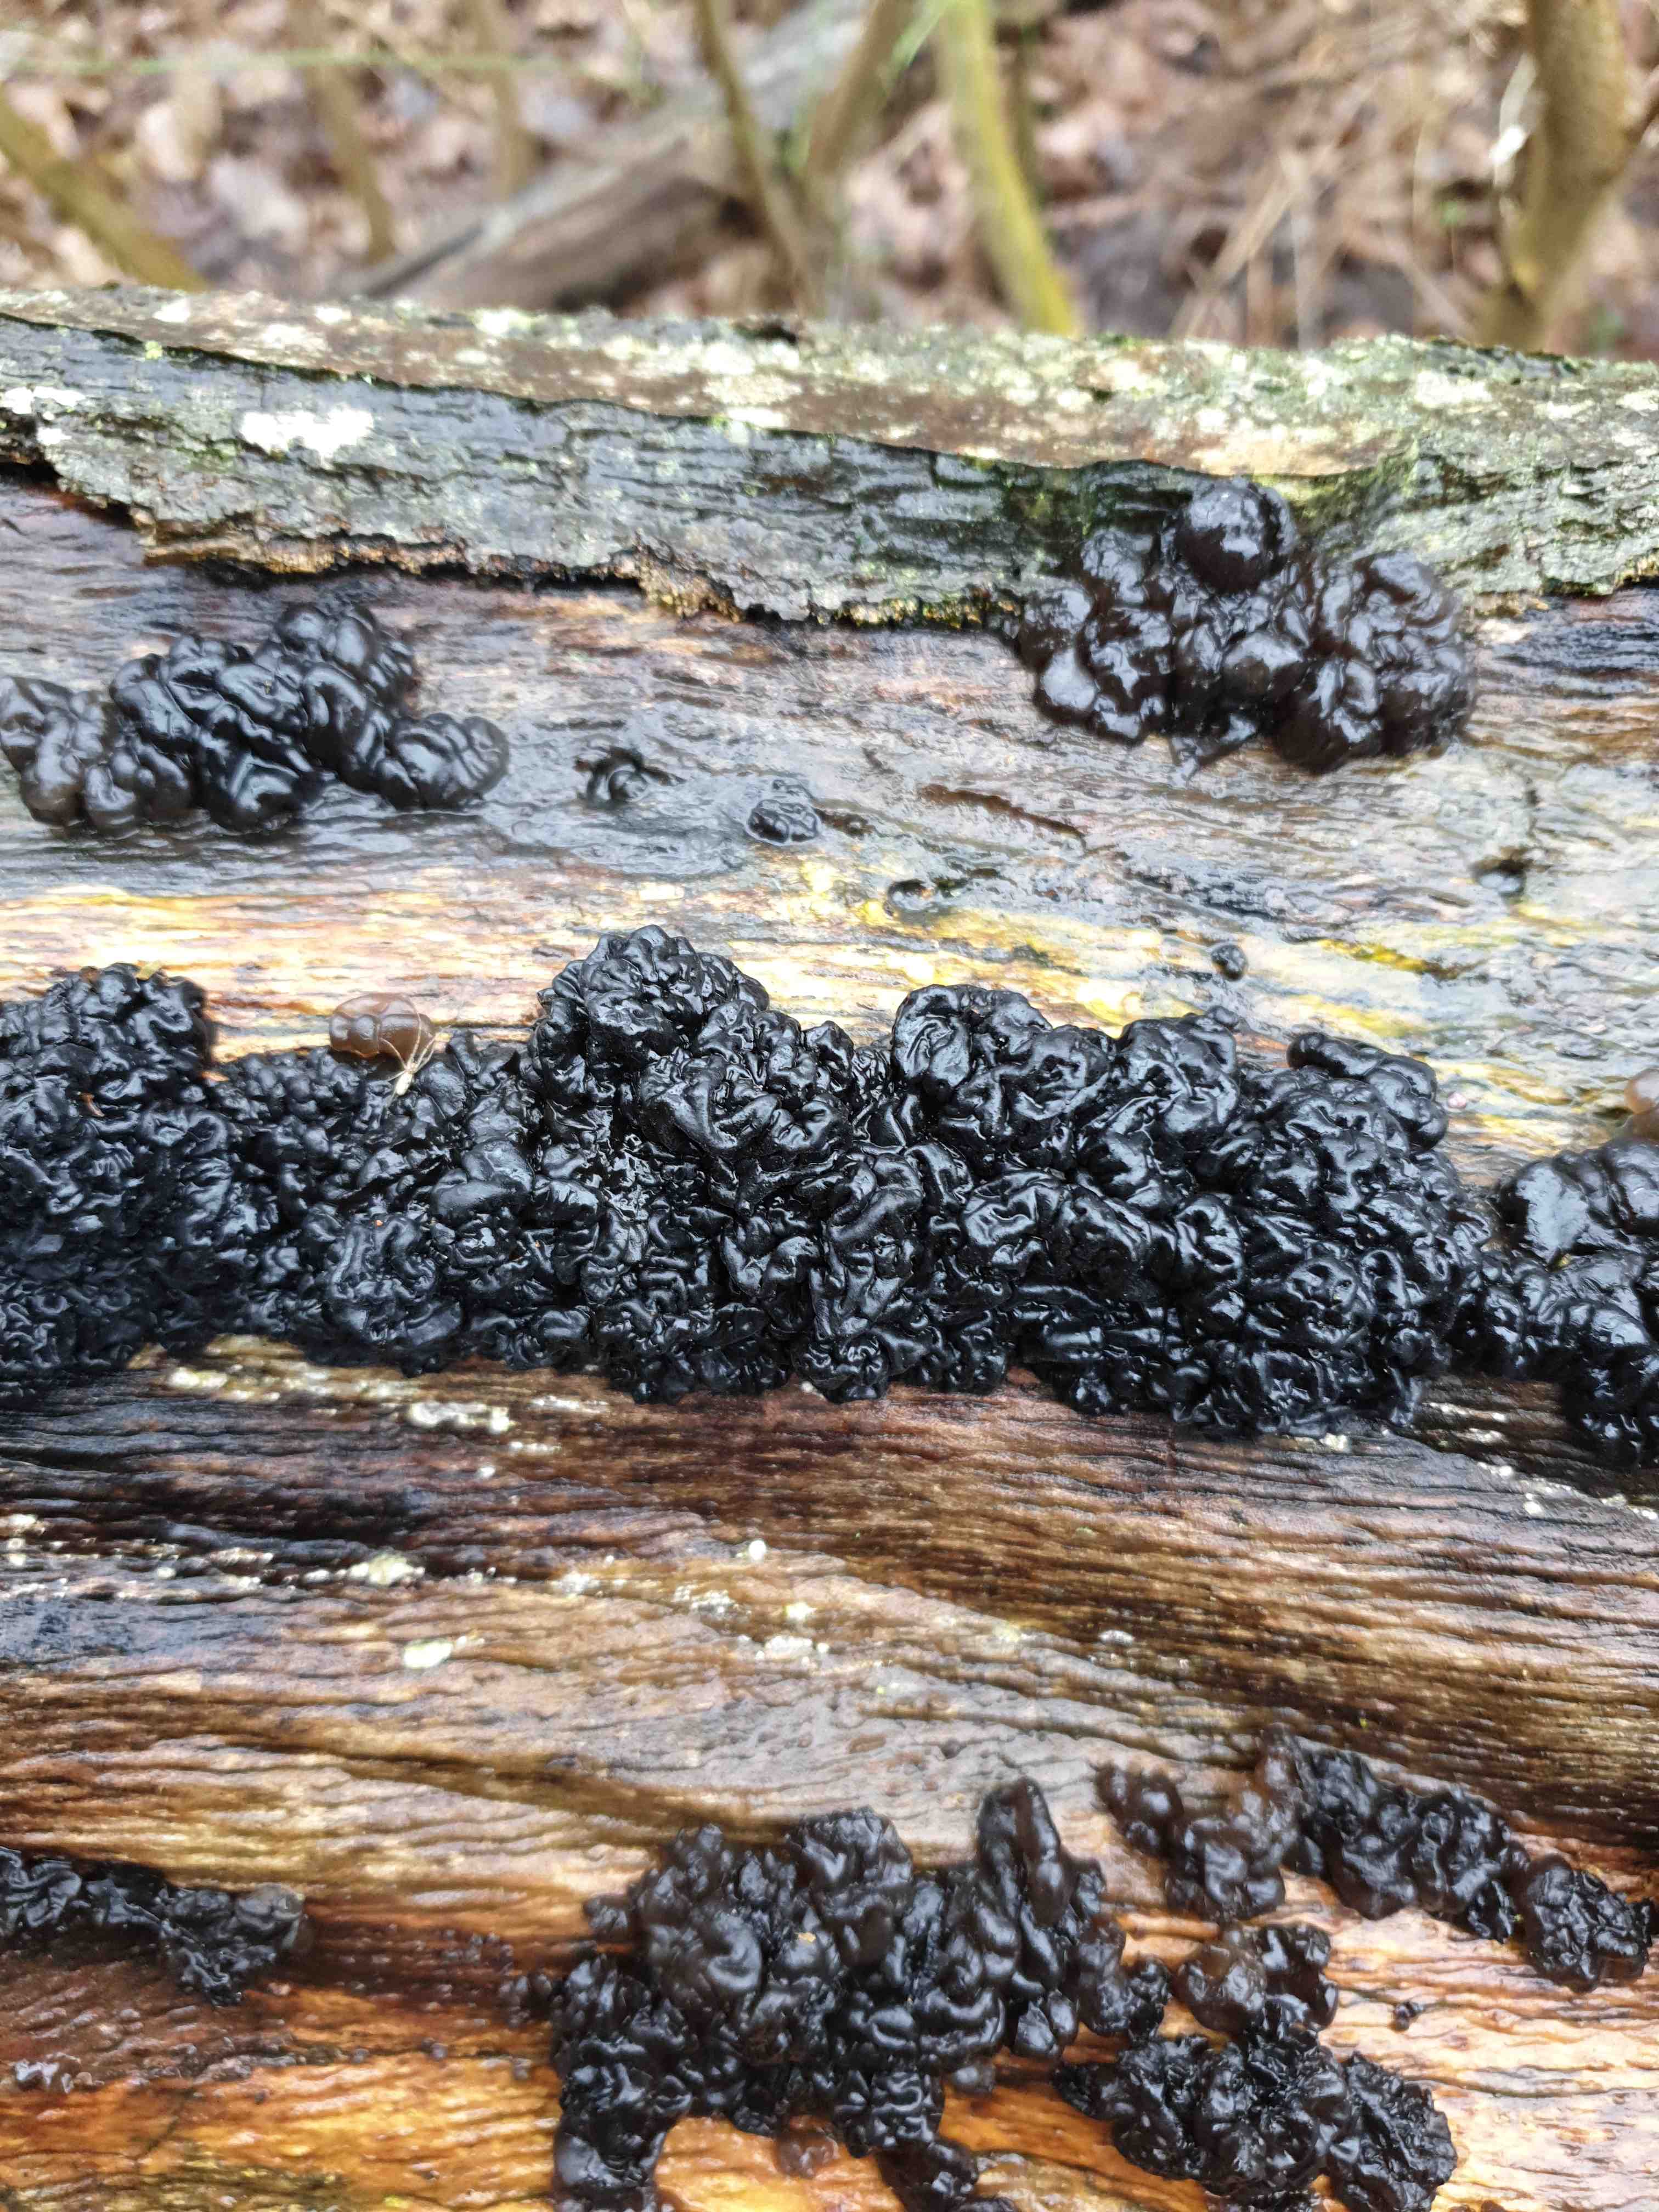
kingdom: Fungi
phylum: Basidiomycota
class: Agaricomycetes
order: Auriculariales
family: Auriculariaceae
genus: Exidia
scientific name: Exidia nigricans
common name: almindelig bævretop
